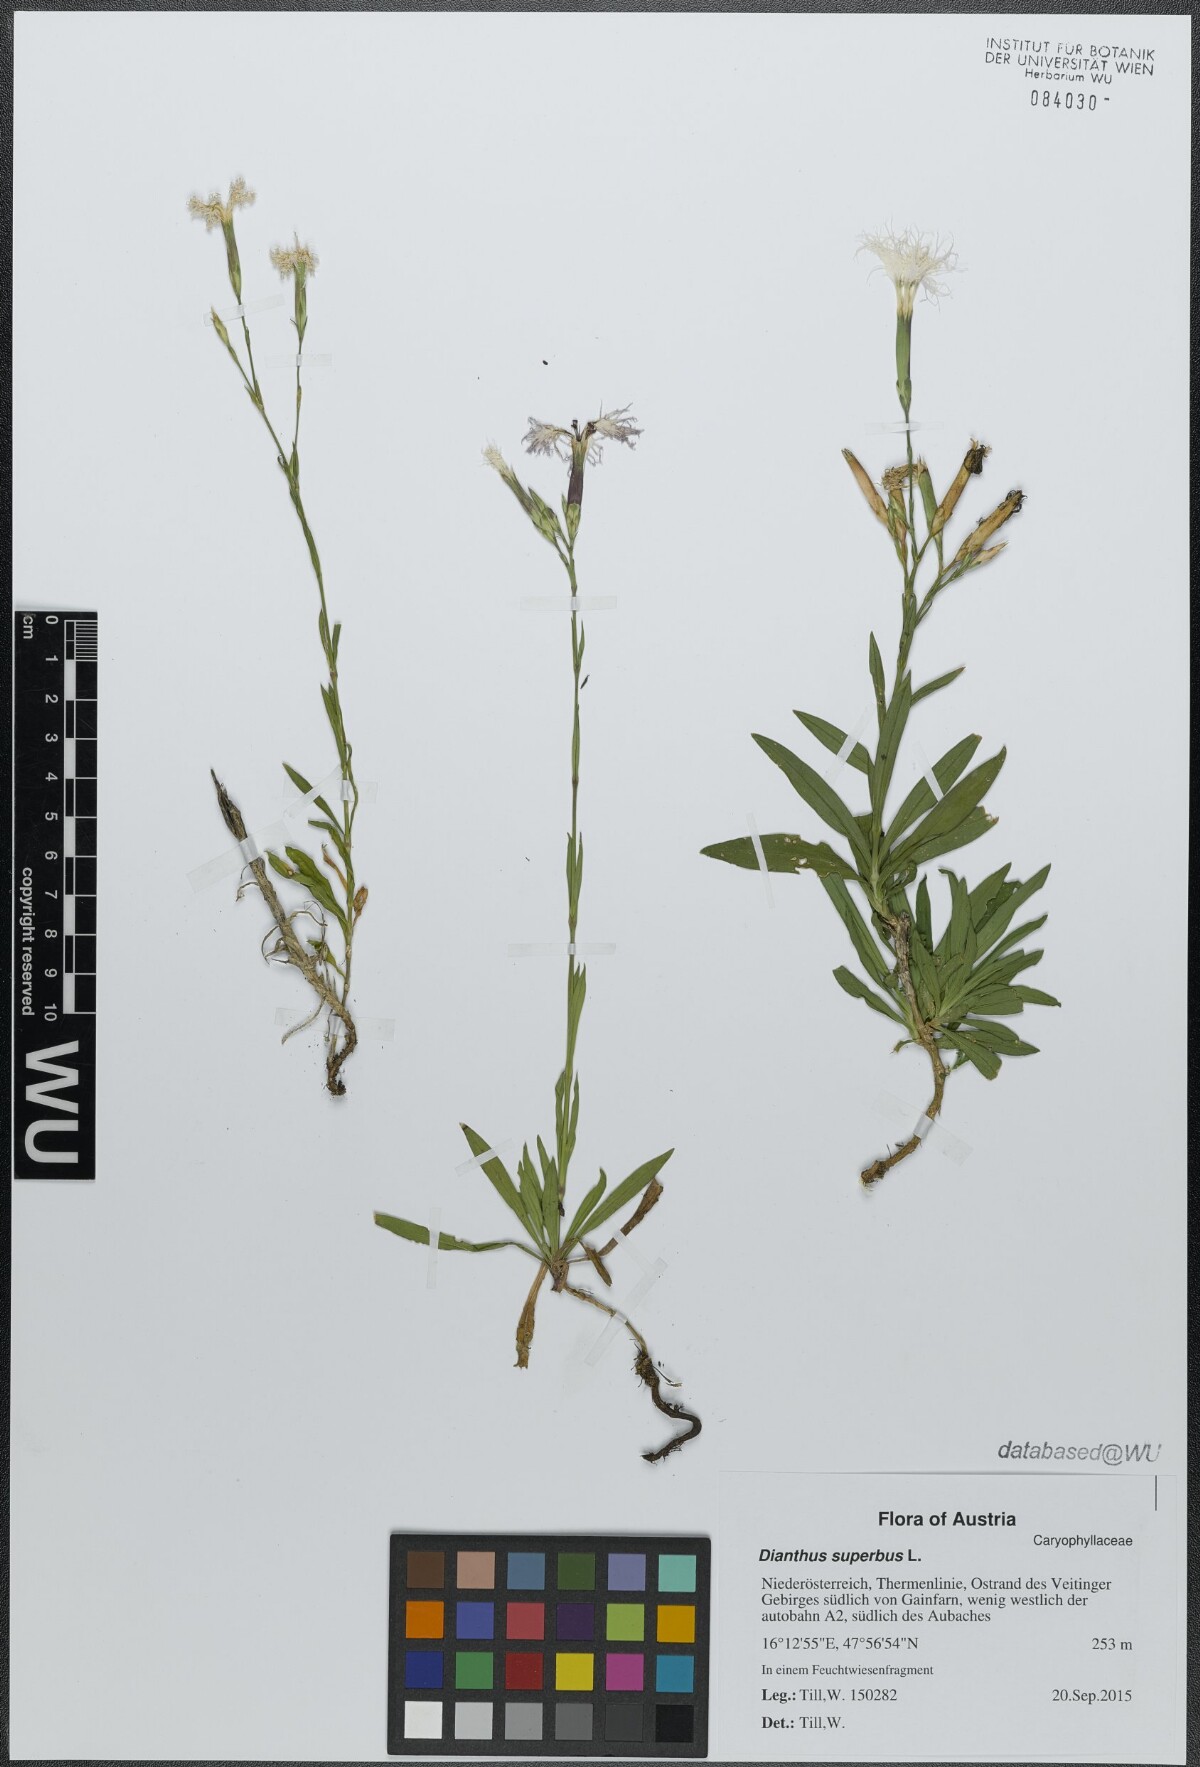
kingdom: Plantae
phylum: Tracheophyta
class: Magnoliopsida
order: Caryophyllales
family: Caryophyllaceae
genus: Dianthus
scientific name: Dianthus superbus
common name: Fringed pink
